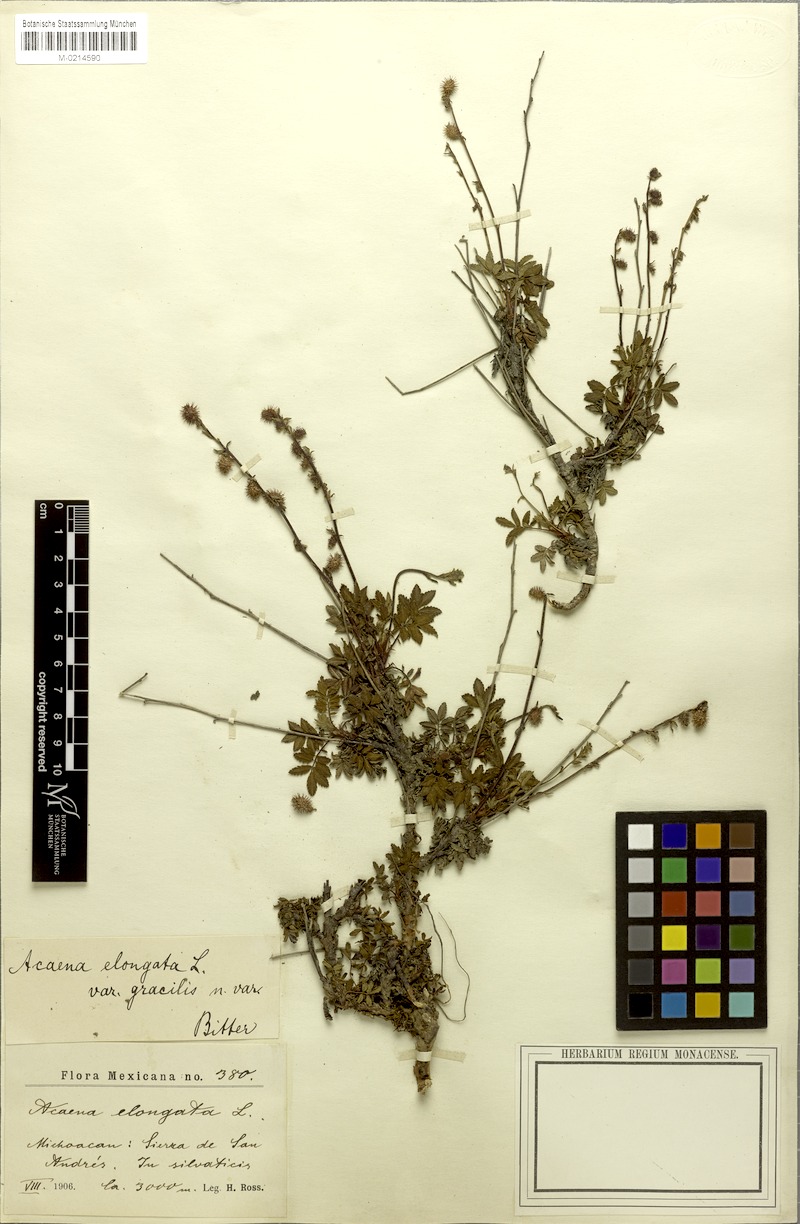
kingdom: Plantae
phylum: Tracheophyta
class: Magnoliopsida
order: Rosales
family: Rosaceae
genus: Acaena
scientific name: Acaena elongata
